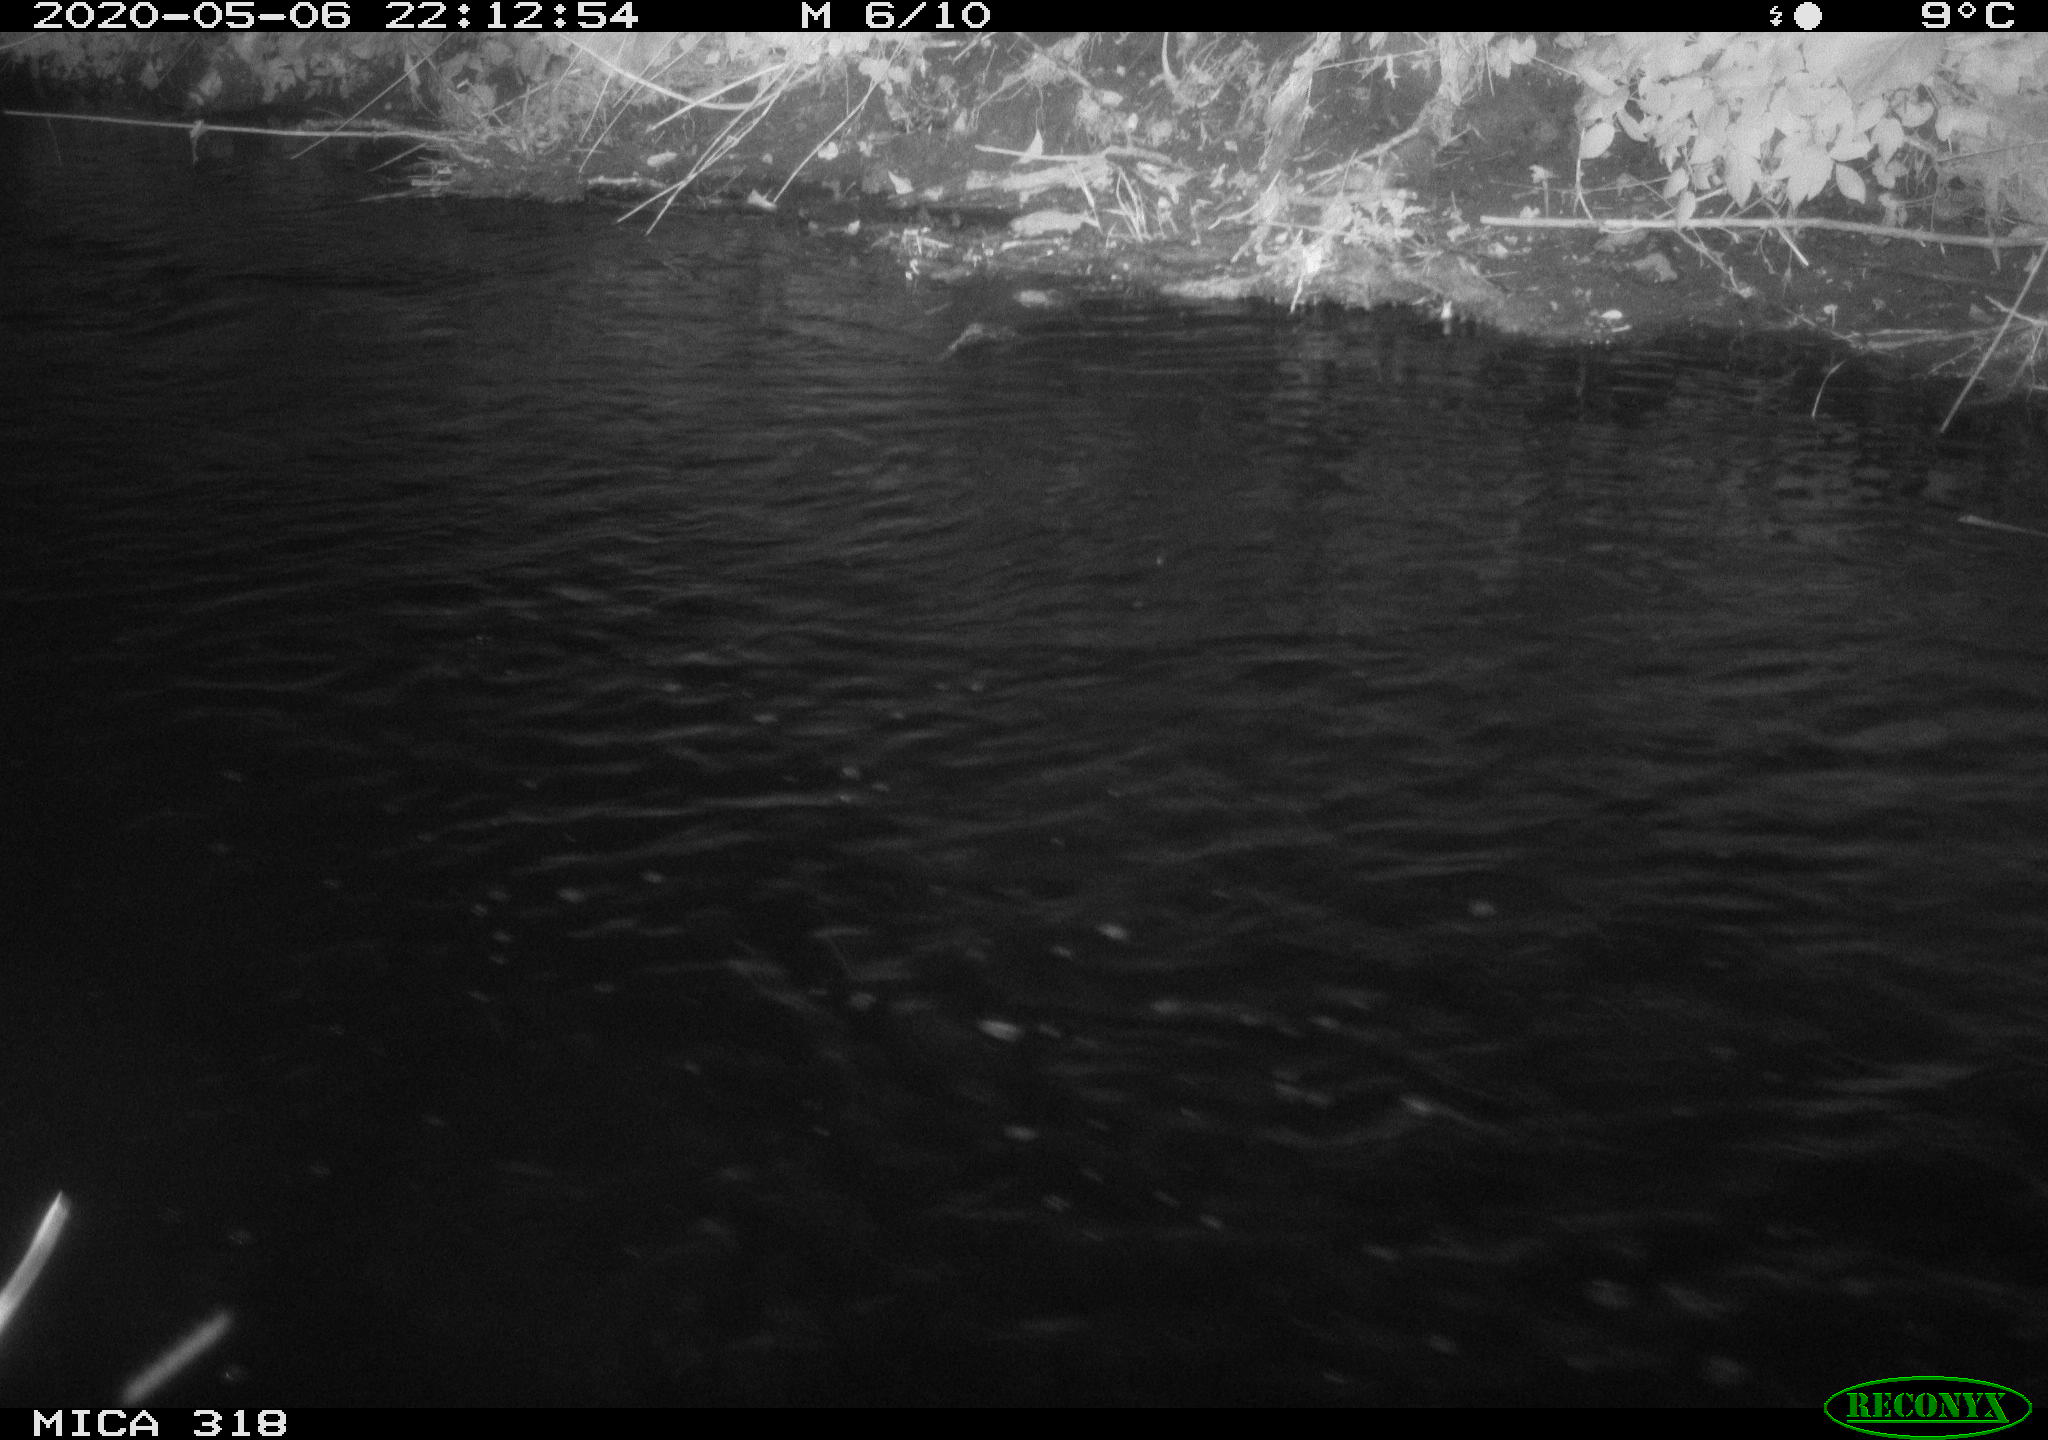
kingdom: Animalia
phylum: Chordata
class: Aves
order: Pelecaniformes
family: Ardeidae
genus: Ardea
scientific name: Ardea cinerea
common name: Grey heron
